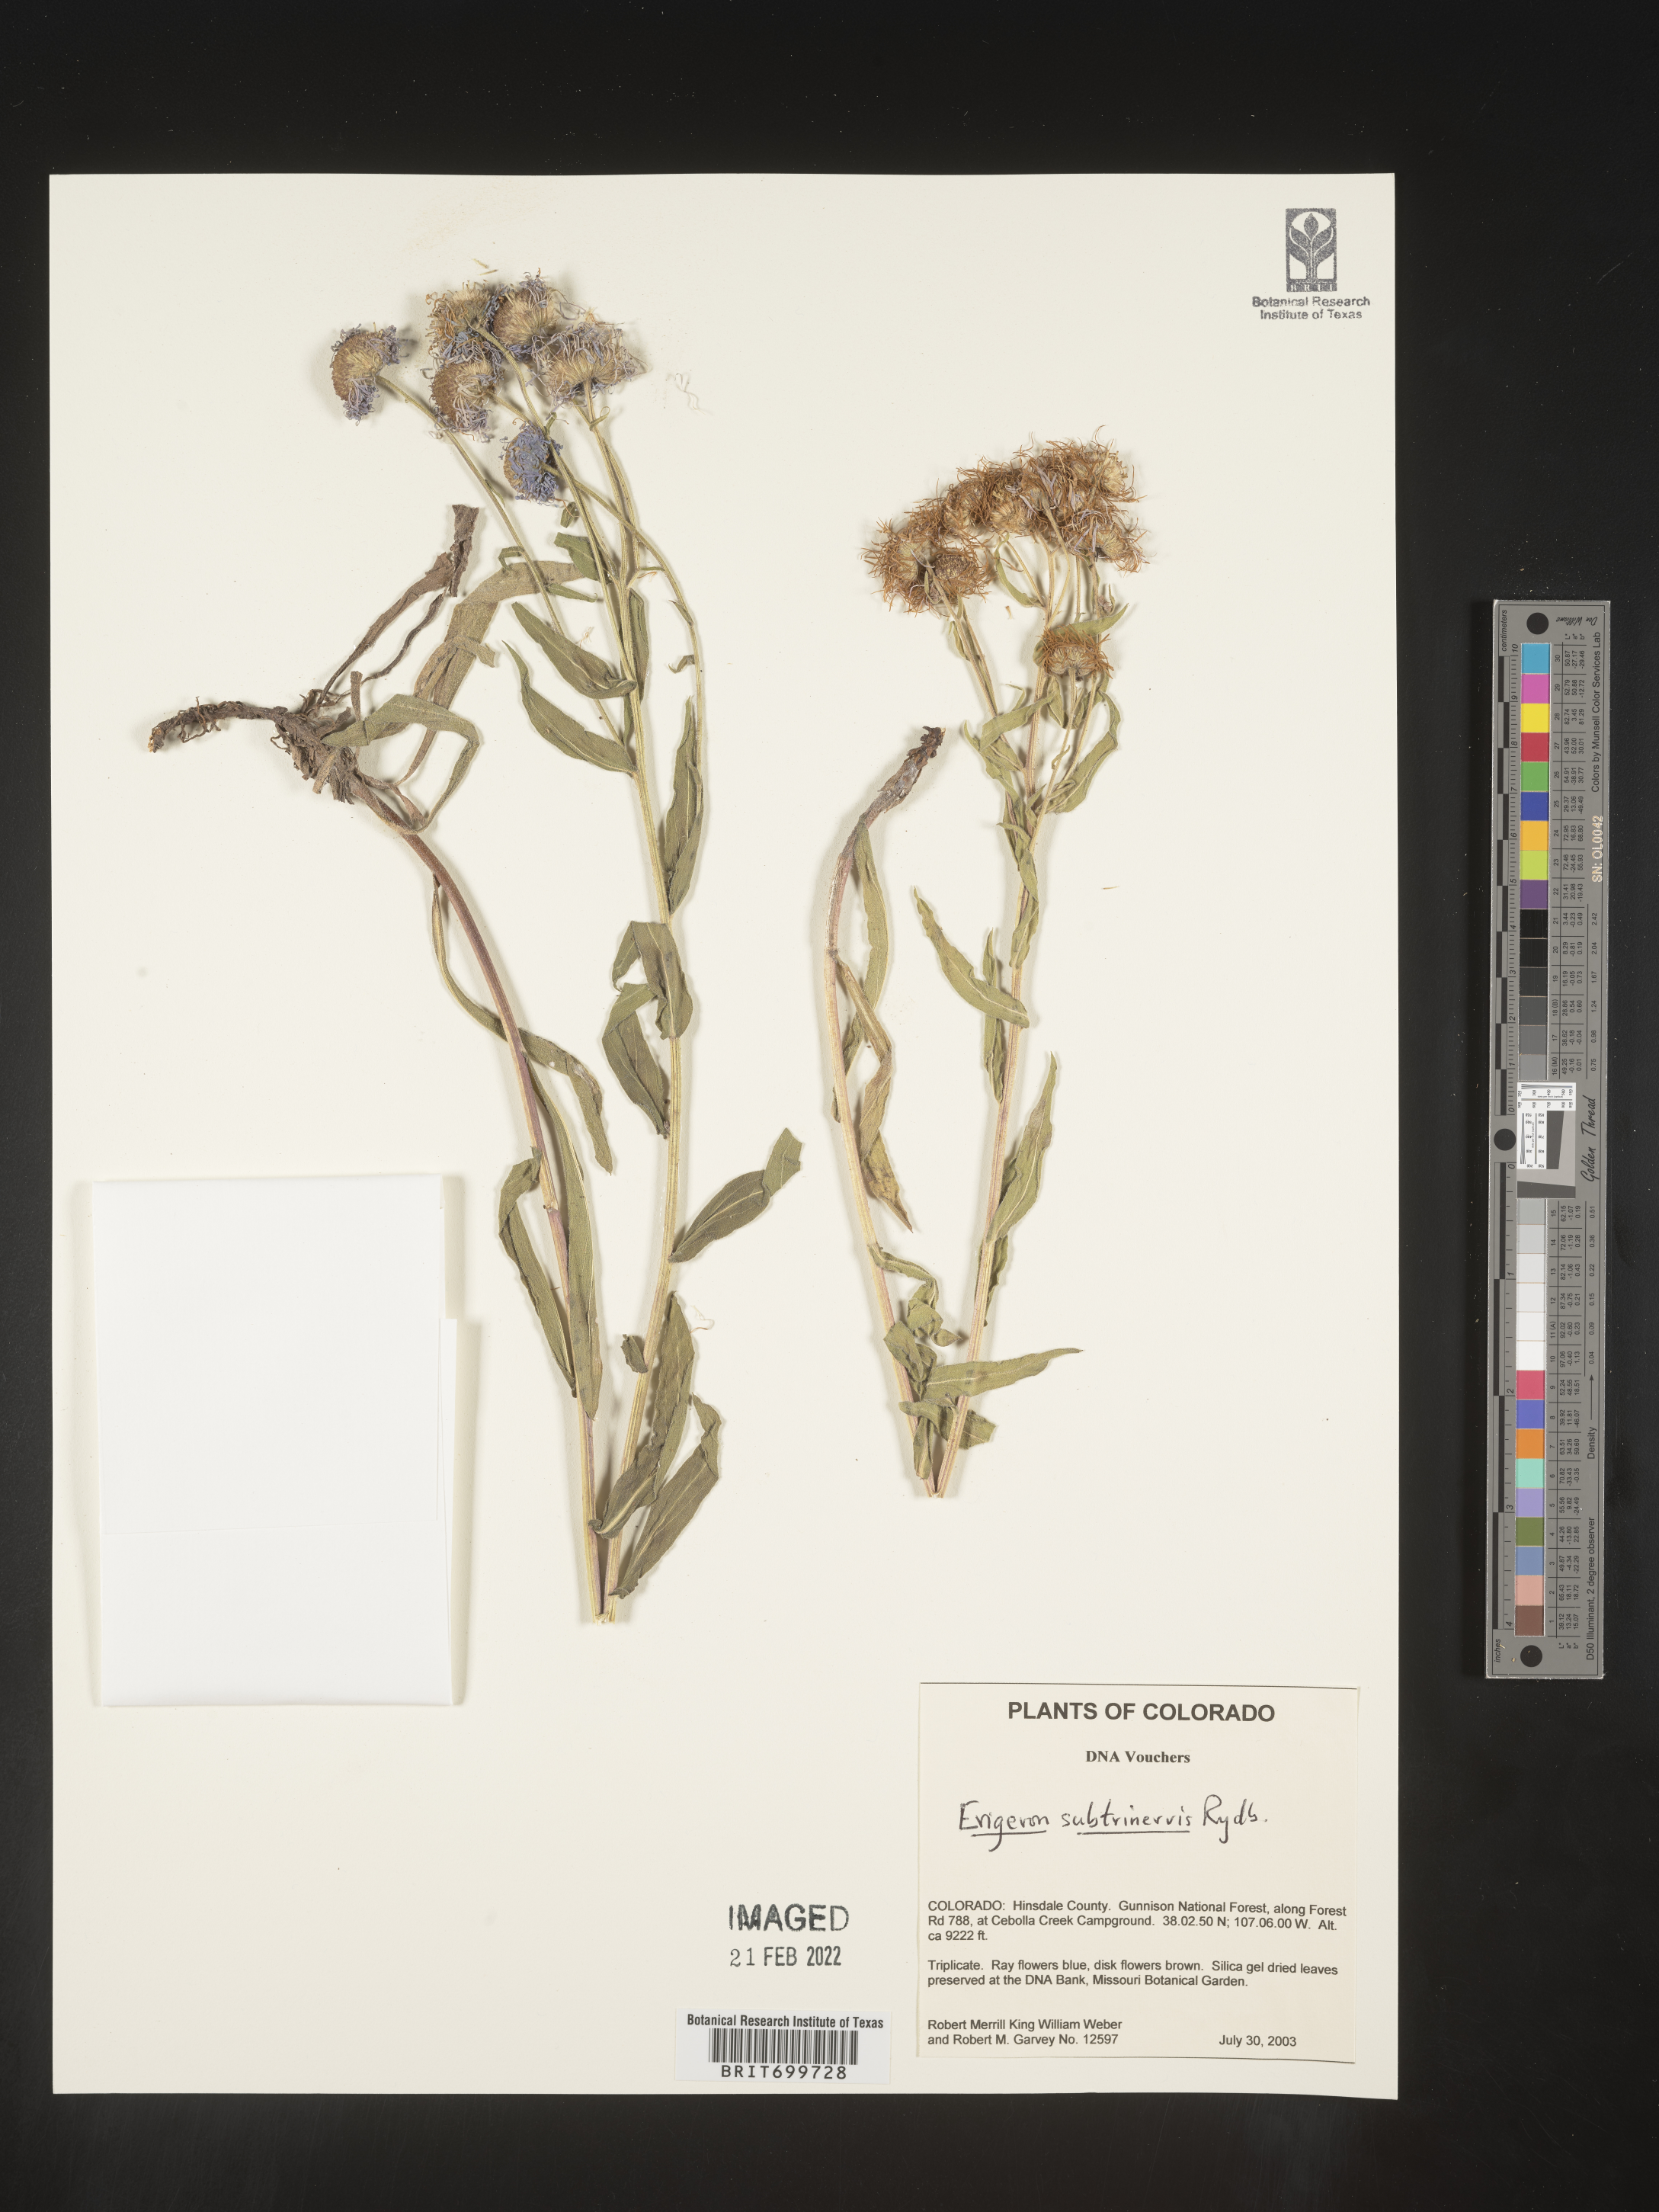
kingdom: Plantae
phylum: Tracheophyta
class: Magnoliopsida
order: Asterales
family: Asteraceae
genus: Erigeron
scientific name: Erigeron subtrinervis
